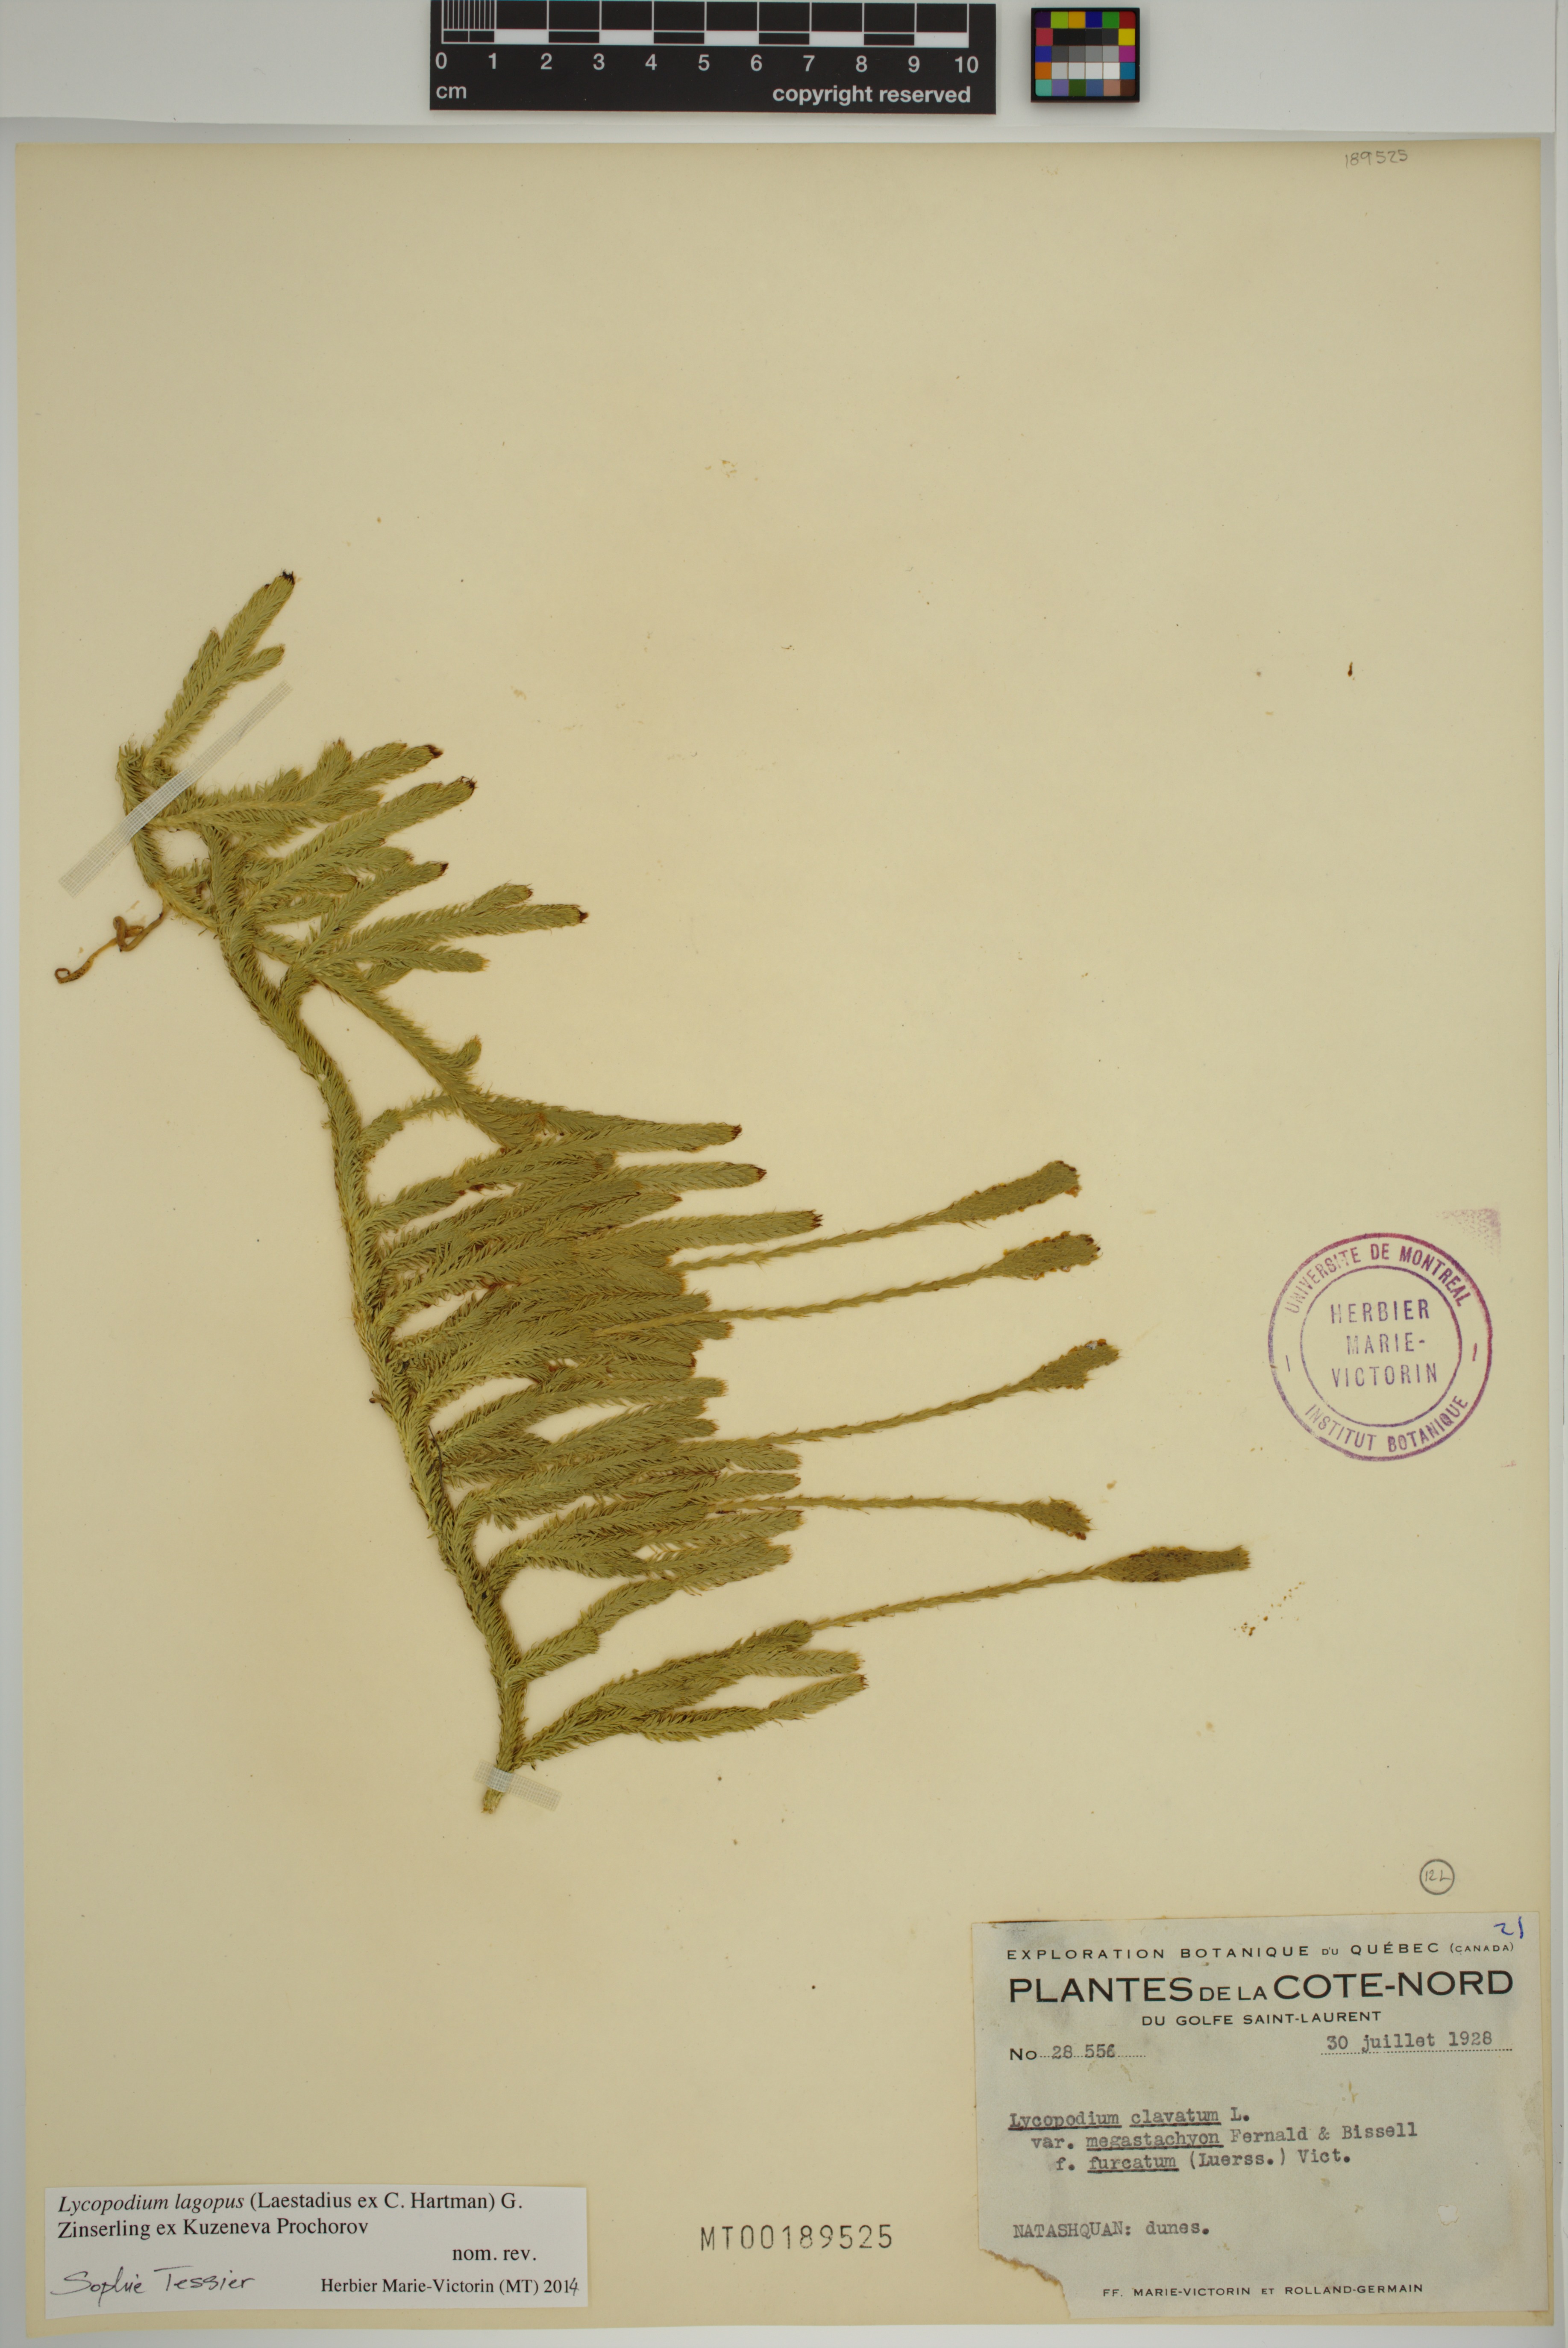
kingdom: Plantae
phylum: Tracheophyta
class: Lycopodiopsida
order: Lycopodiales
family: Lycopodiaceae
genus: Lycopodium
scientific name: Lycopodium lagopus
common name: One-cone clubmoss
